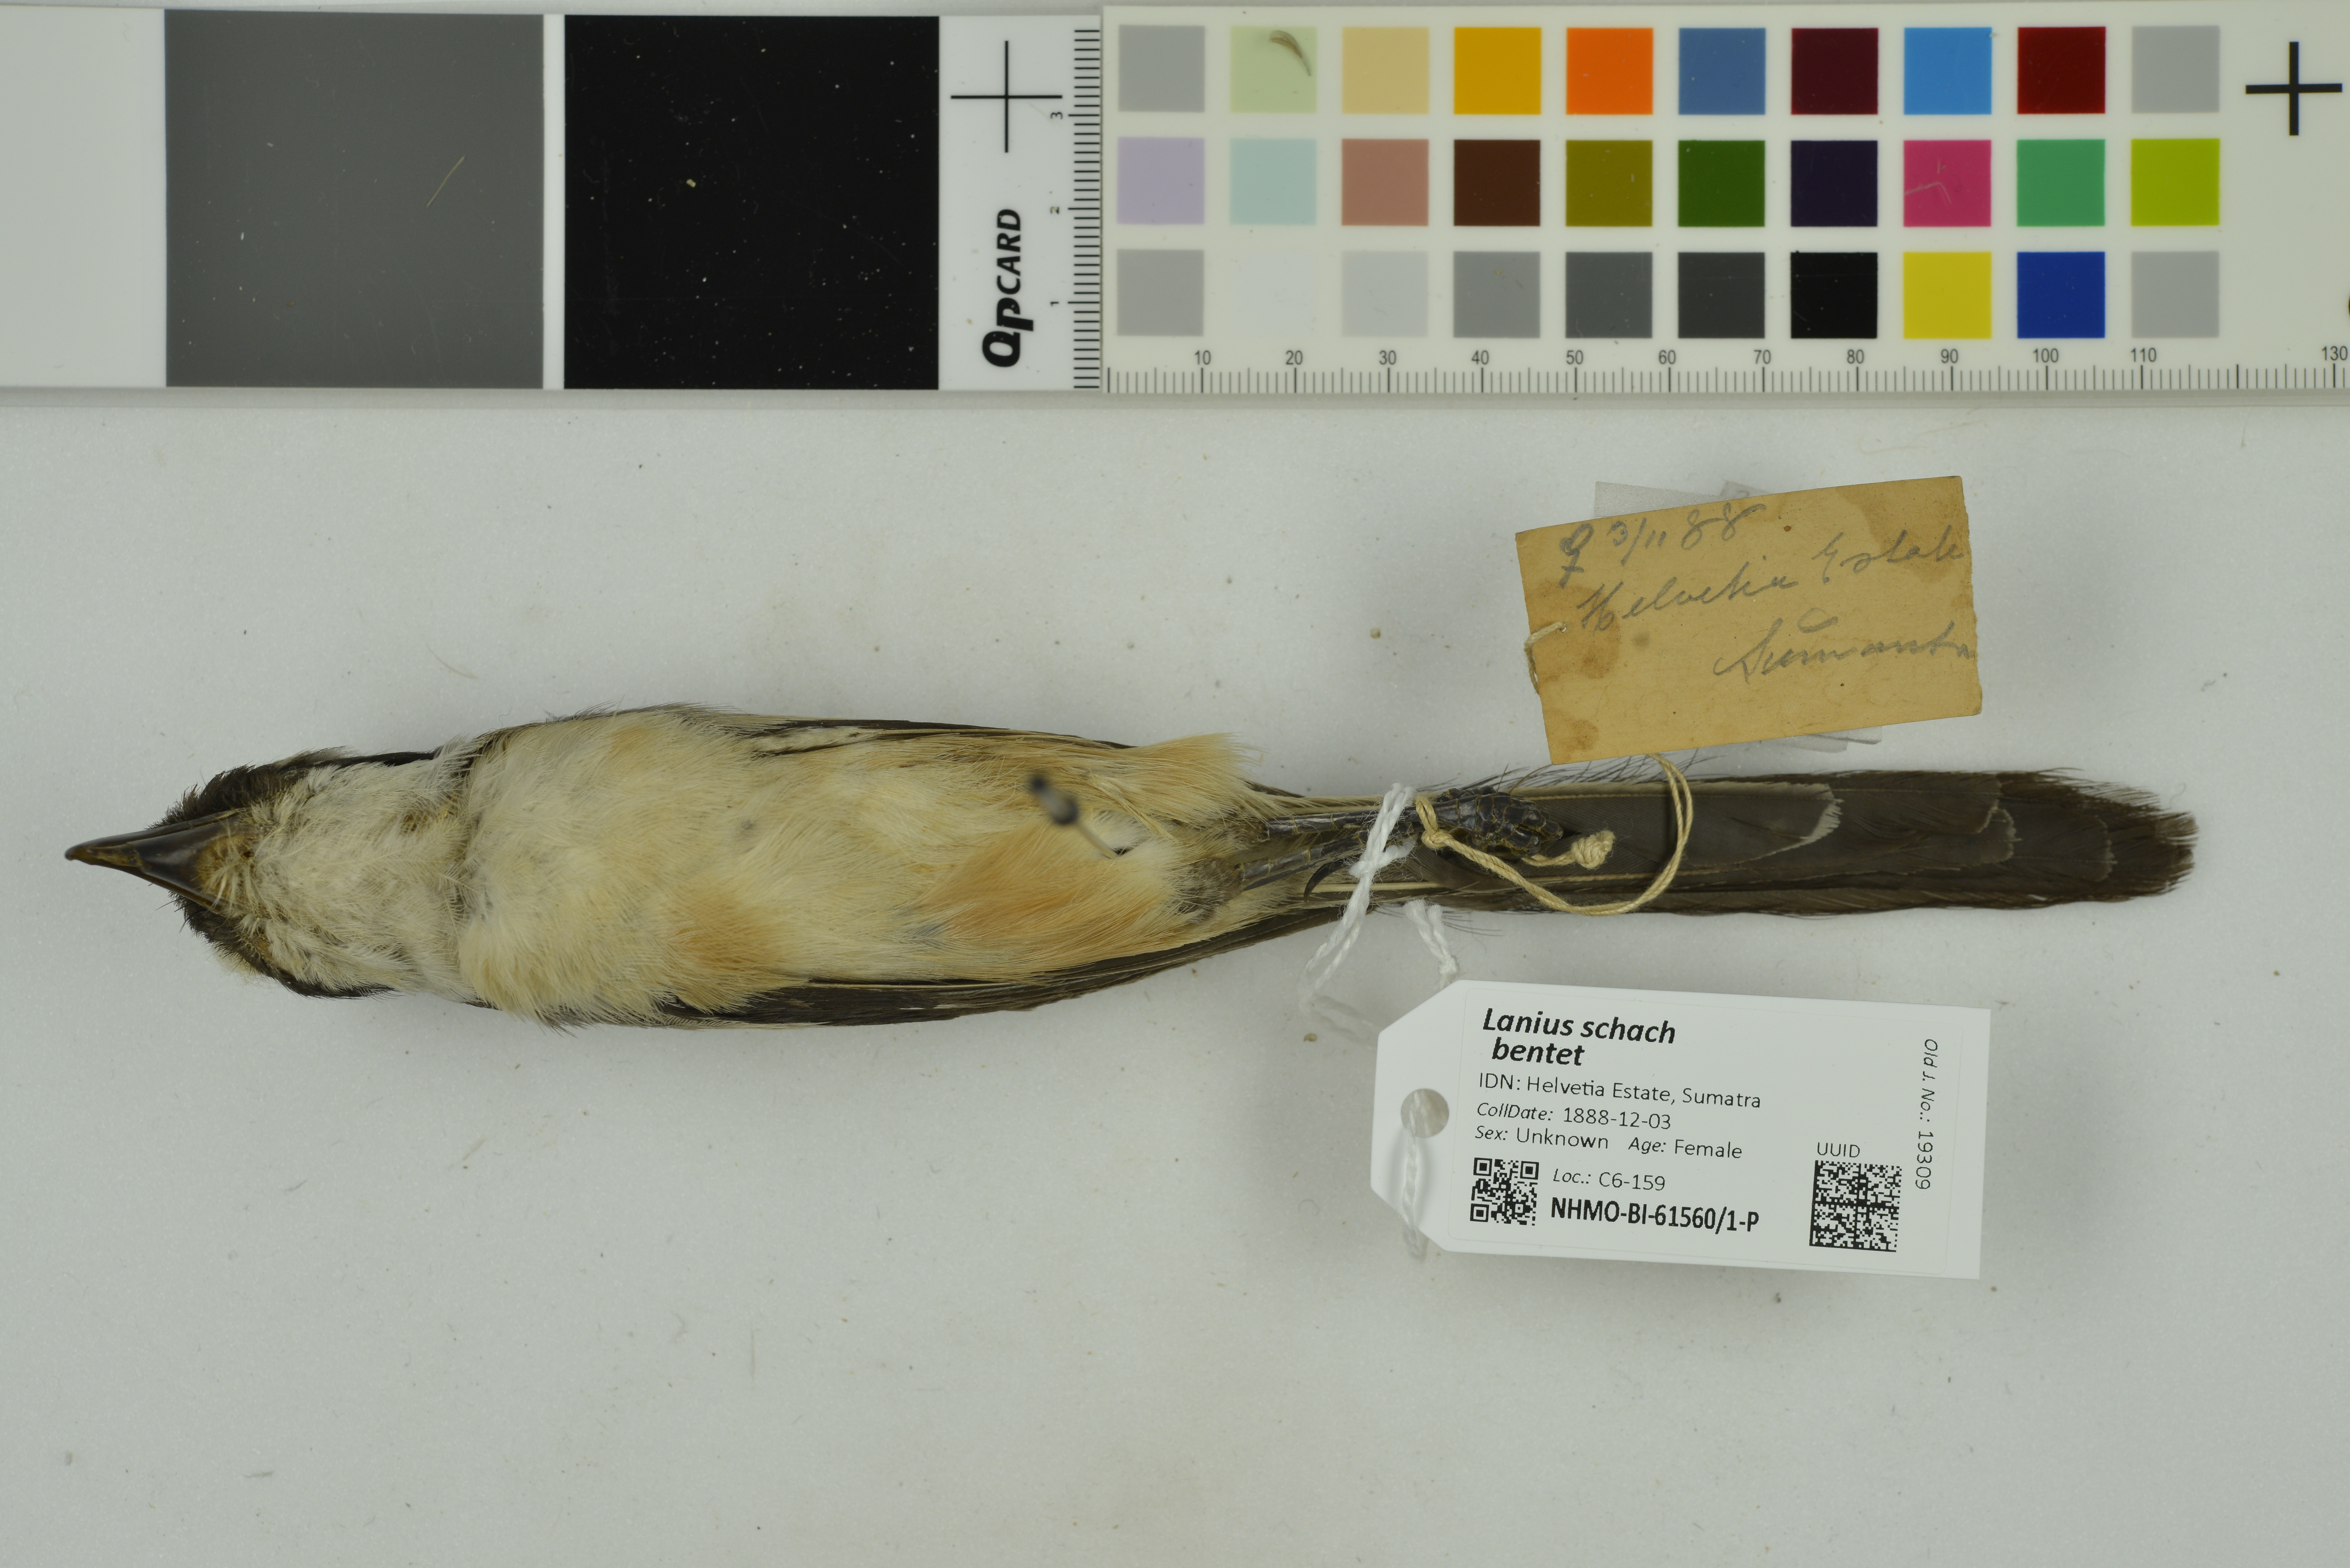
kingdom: Animalia
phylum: Chordata
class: Aves
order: Passeriformes
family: Laniidae
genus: Lanius
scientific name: Lanius schach
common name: Long-tailed shrike
